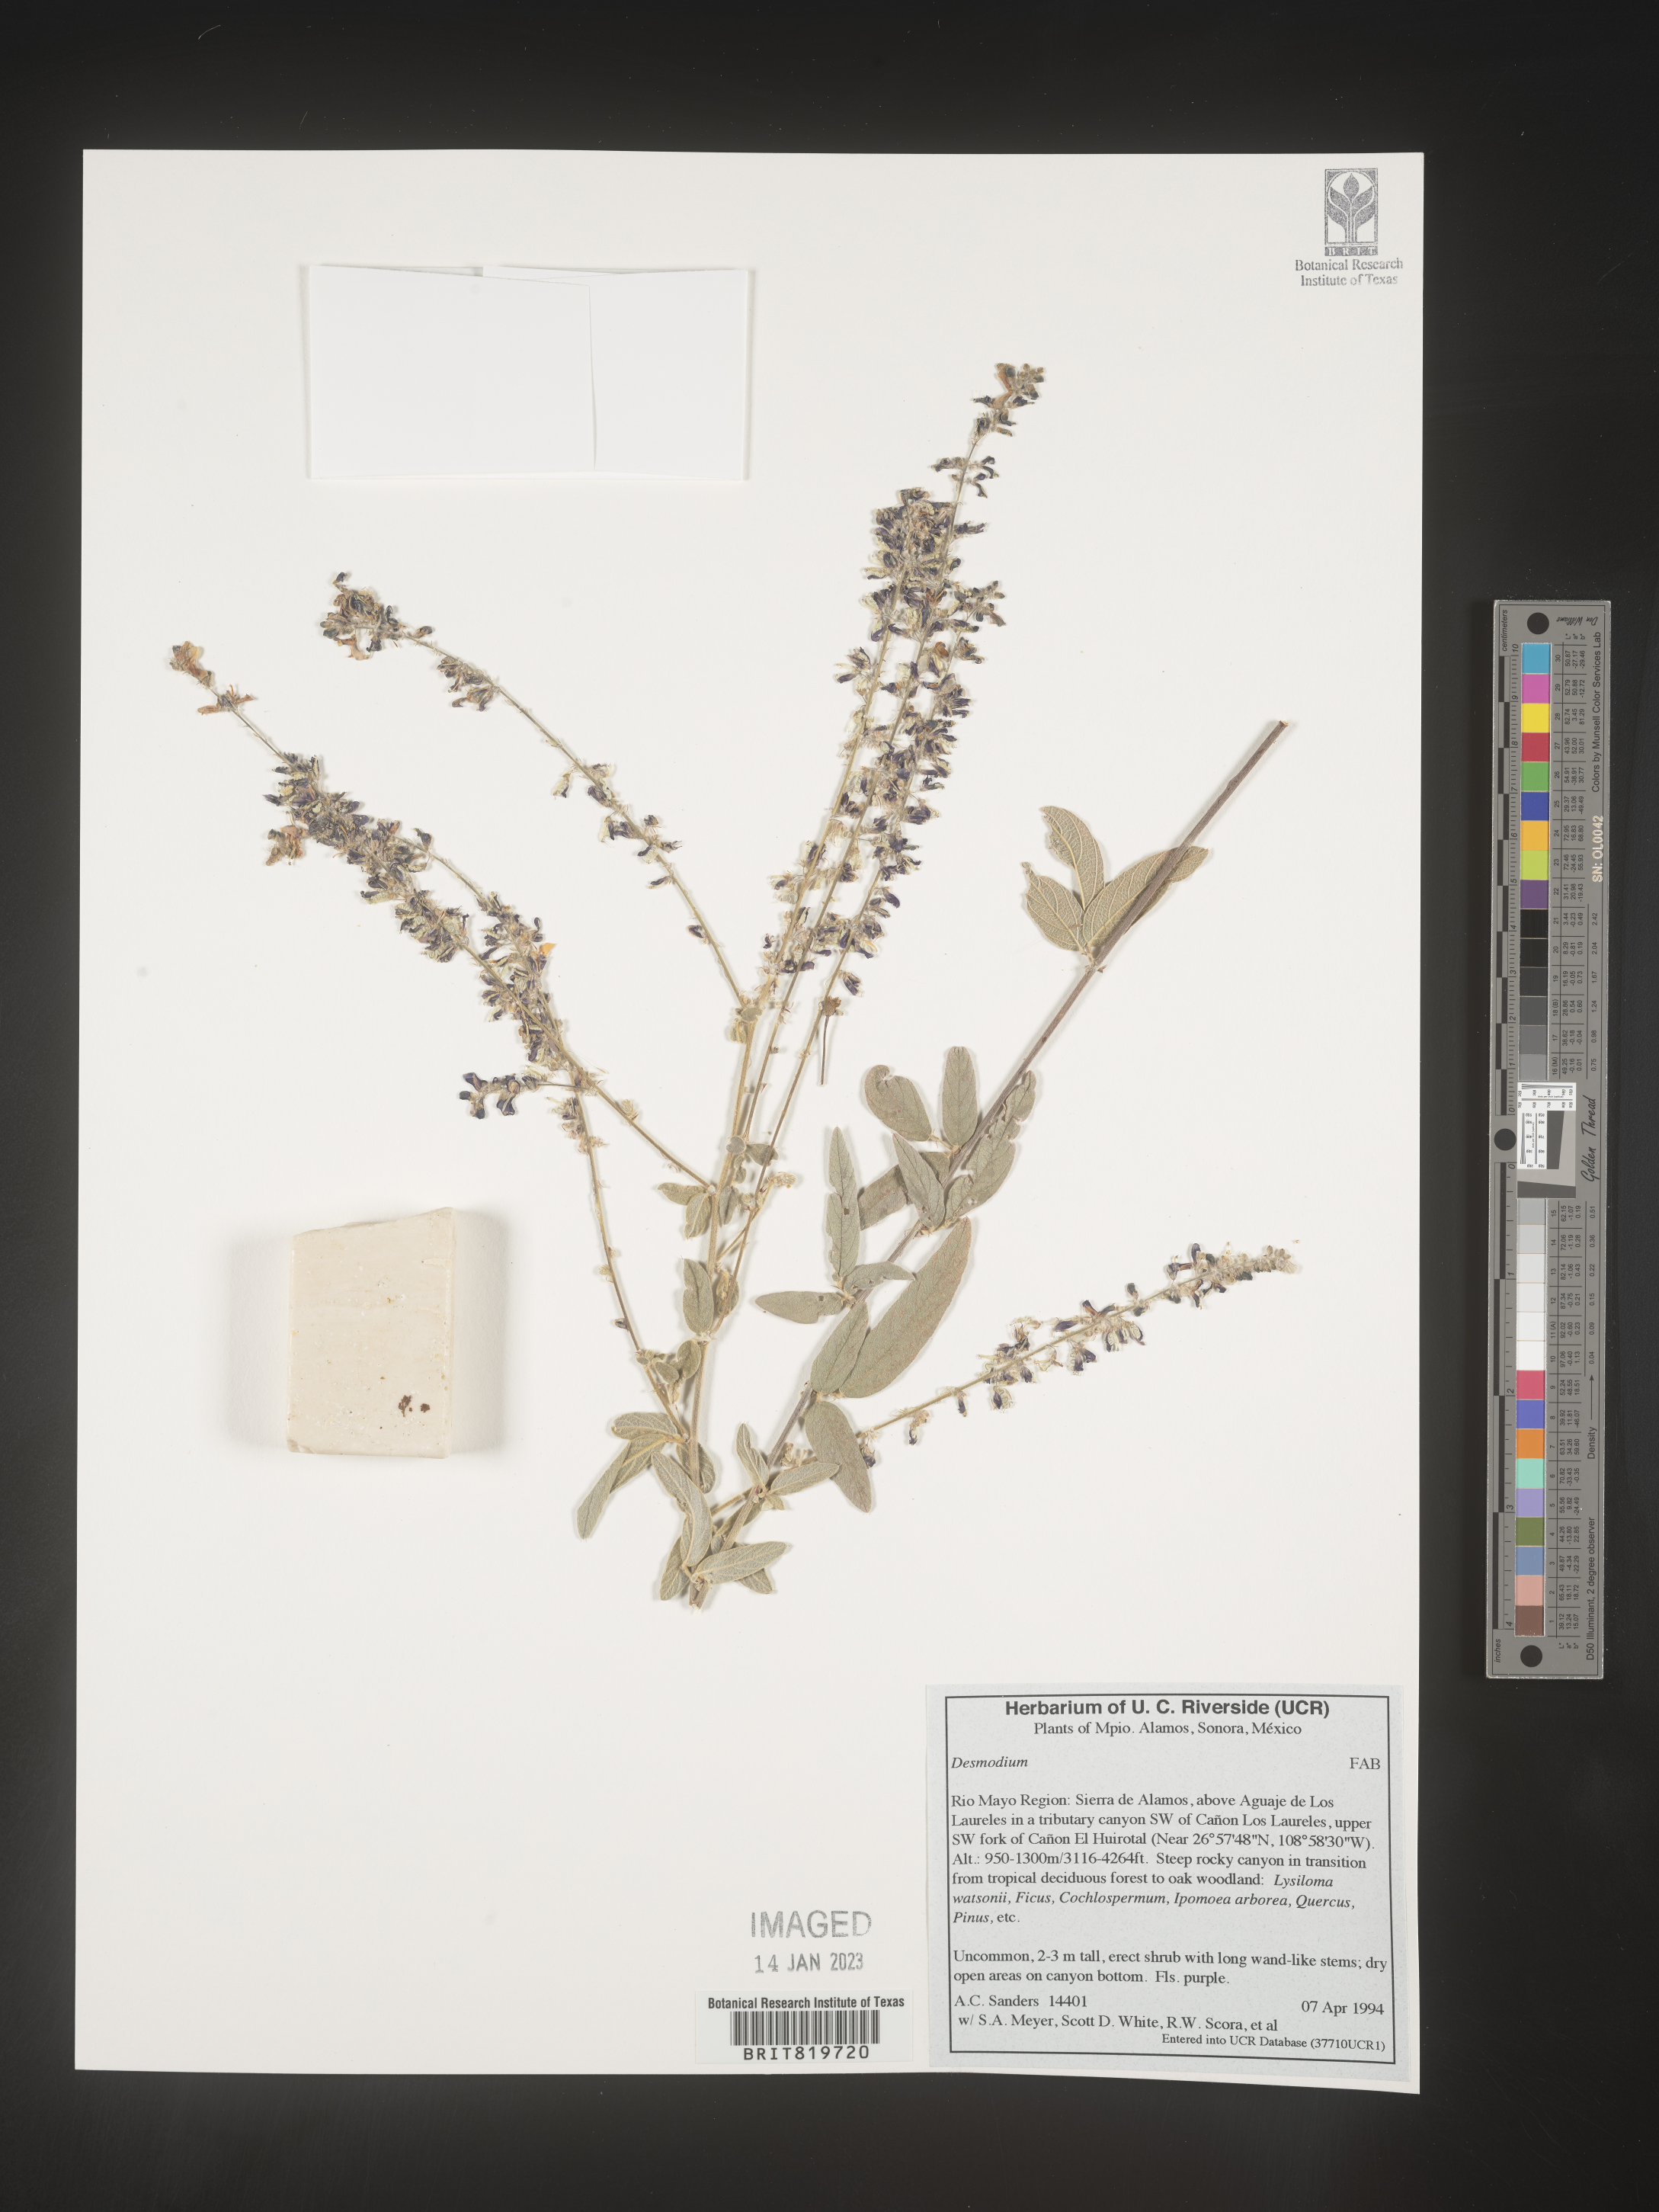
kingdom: Plantae
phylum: Tracheophyta
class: Magnoliopsida
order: Fabales
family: Fabaceae
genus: Desmodium
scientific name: Desmodium
